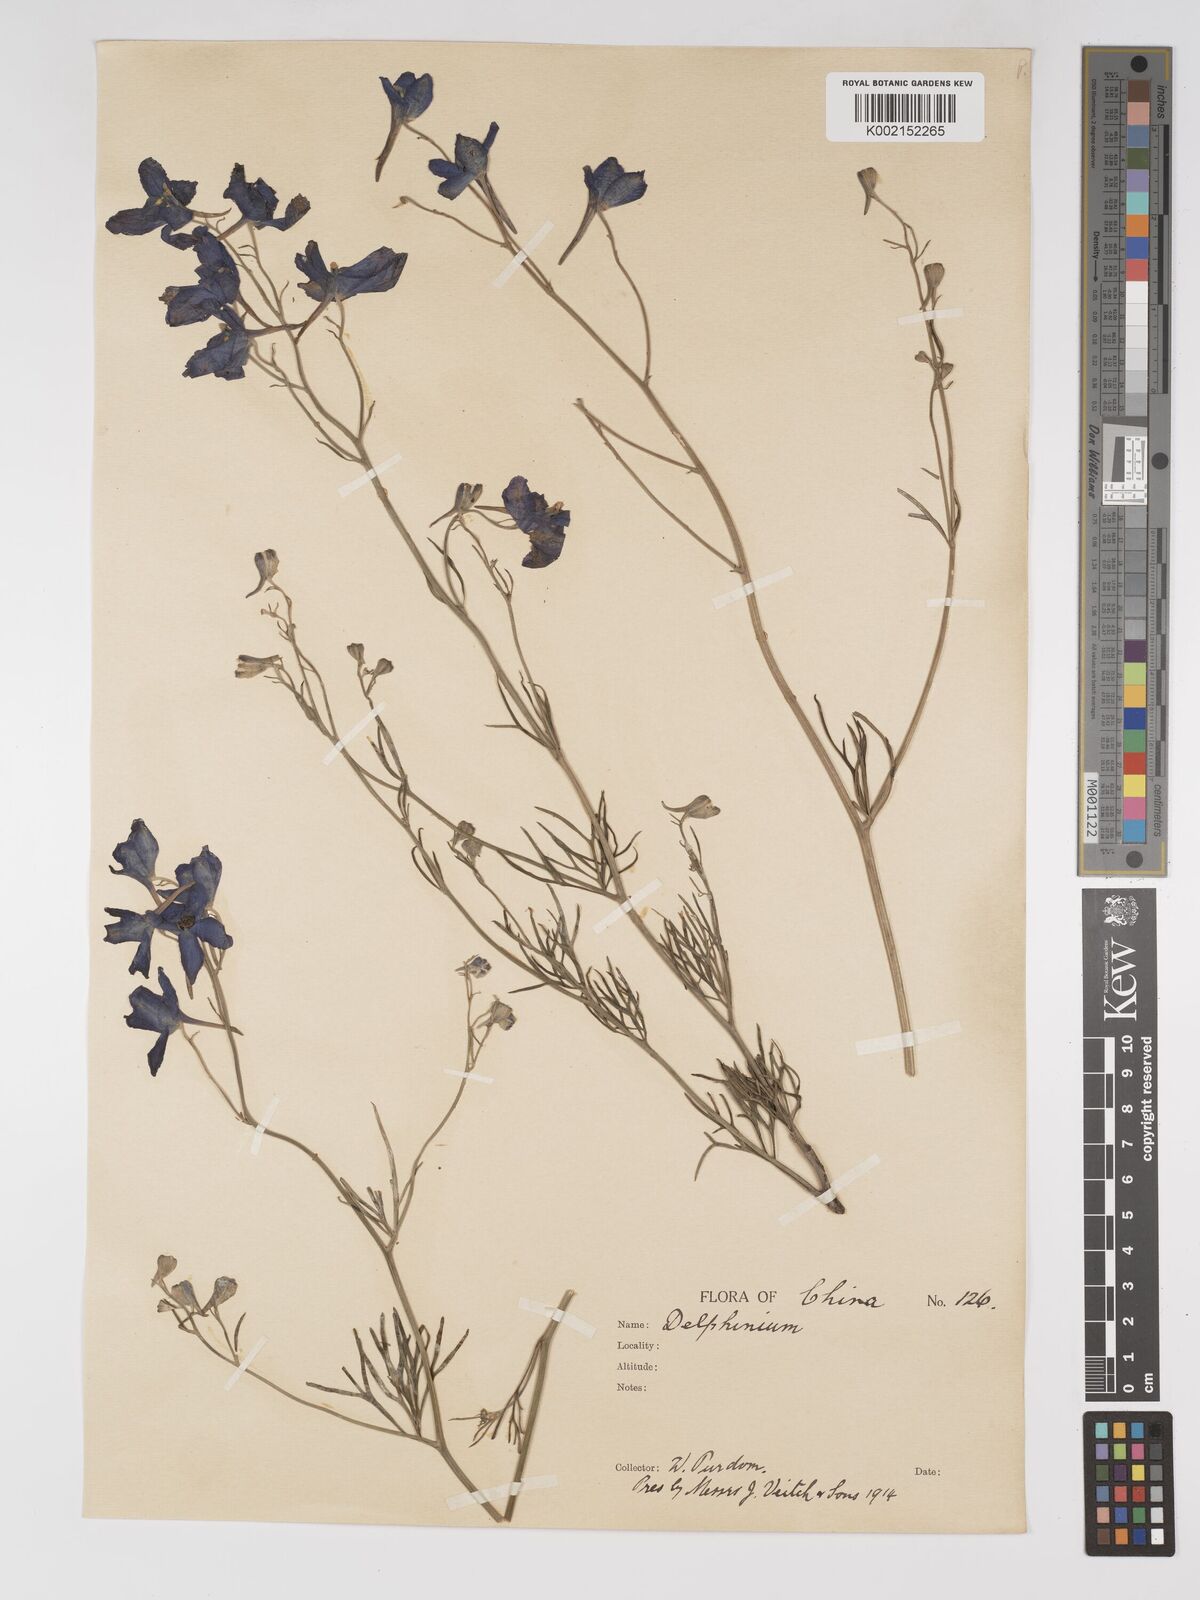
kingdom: Plantae
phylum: Tracheophyta
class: Magnoliopsida
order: Ranunculales
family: Ranunculaceae
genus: Delphinium
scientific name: Delphinium grandiflorum
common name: Siberian larkspur
